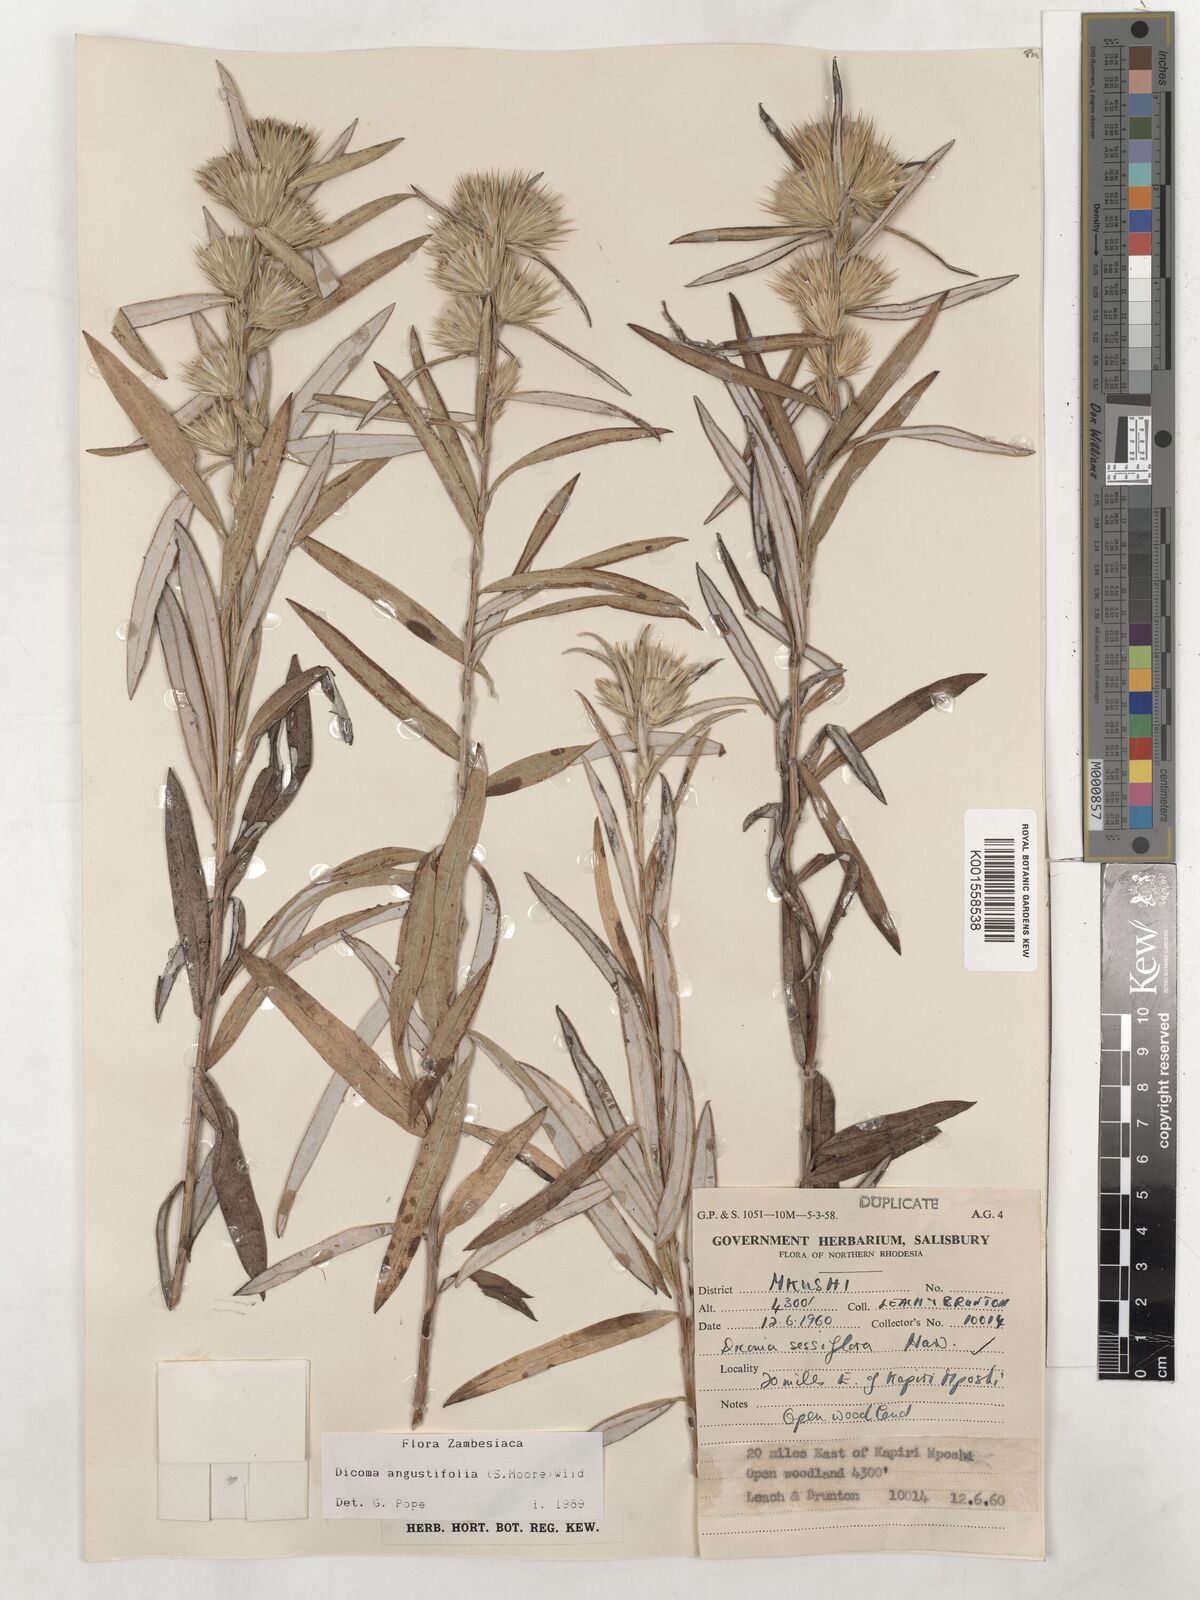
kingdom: Plantae
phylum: Tracheophyta
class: Magnoliopsida
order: Asterales
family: Asteraceae
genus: Macledium
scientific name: Macledium poggei
